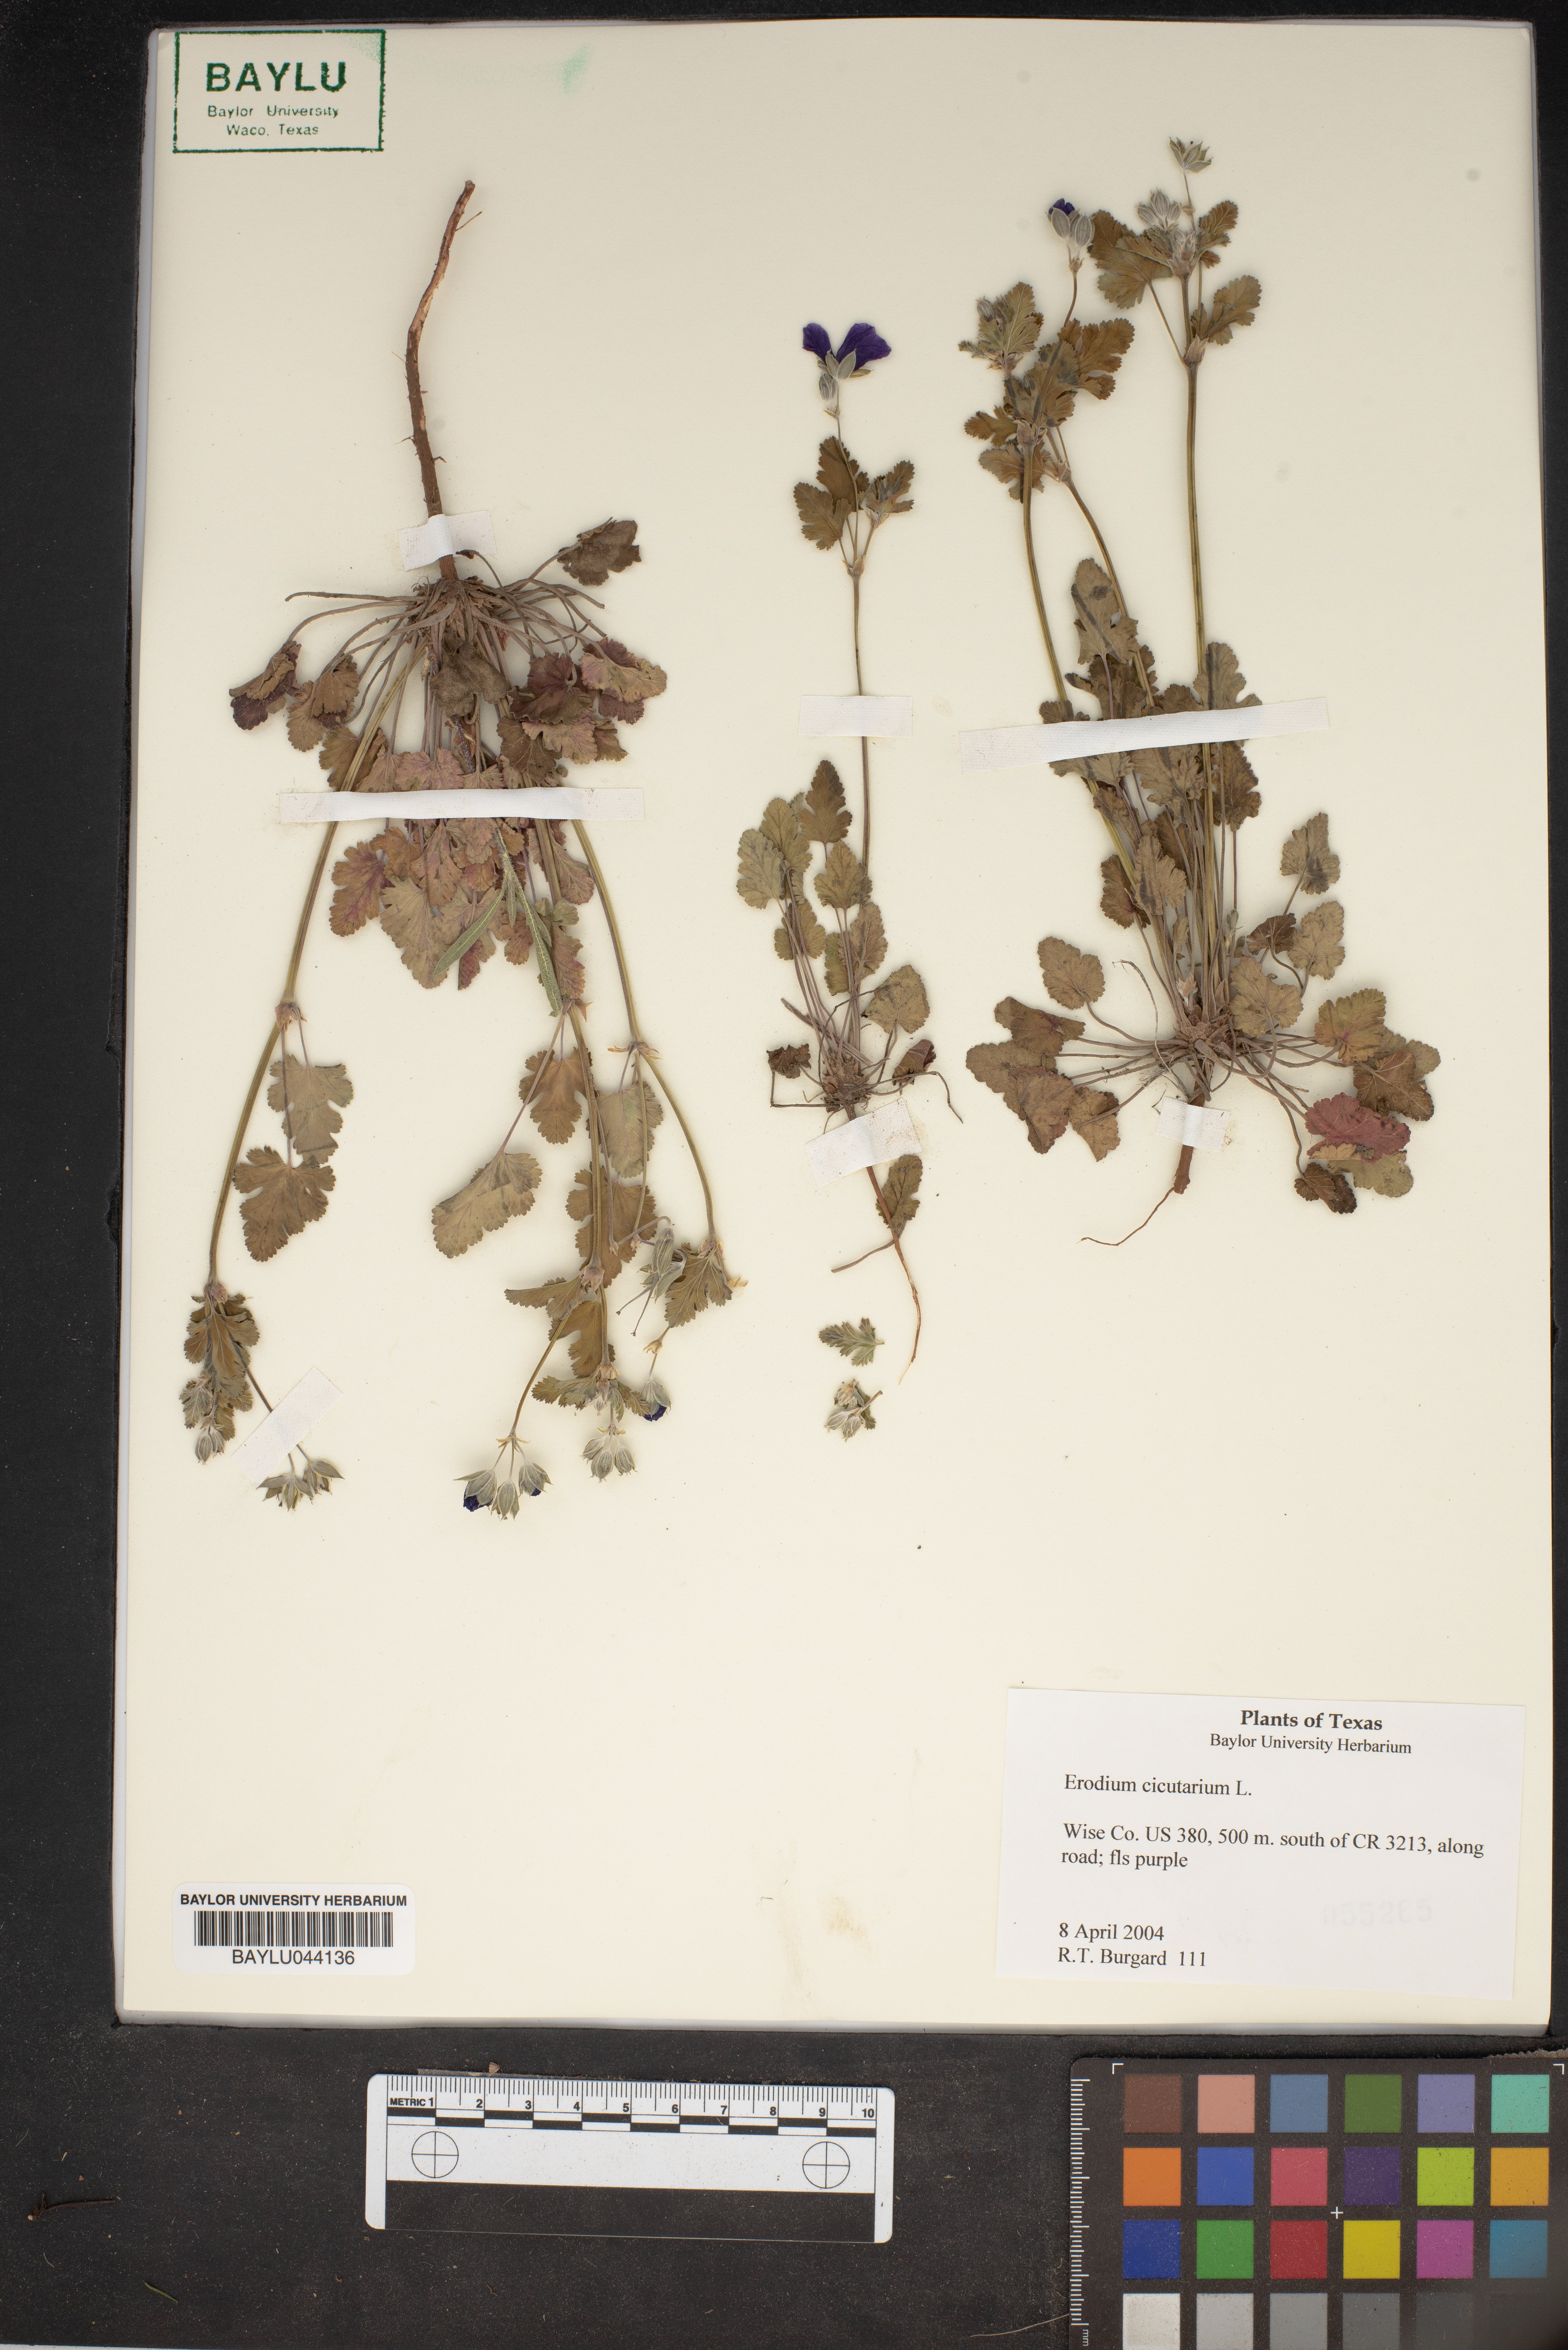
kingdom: Plantae
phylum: Tracheophyta
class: Magnoliopsida
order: Geraniales
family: Geraniaceae
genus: Erodium
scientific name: Erodium cicutarium
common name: Common stork's-bill
